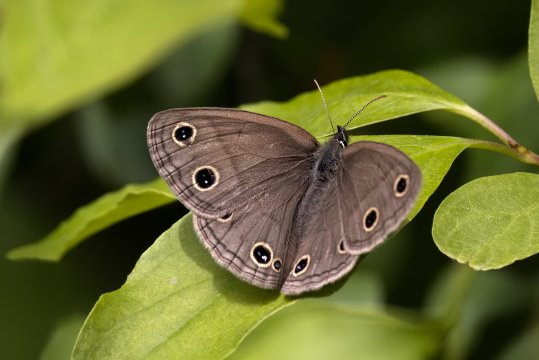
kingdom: Animalia
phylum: Arthropoda
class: Insecta
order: Lepidoptera
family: Nymphalidae
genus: Euptychia
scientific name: Euptychia cymela
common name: Little Wood Satyr
